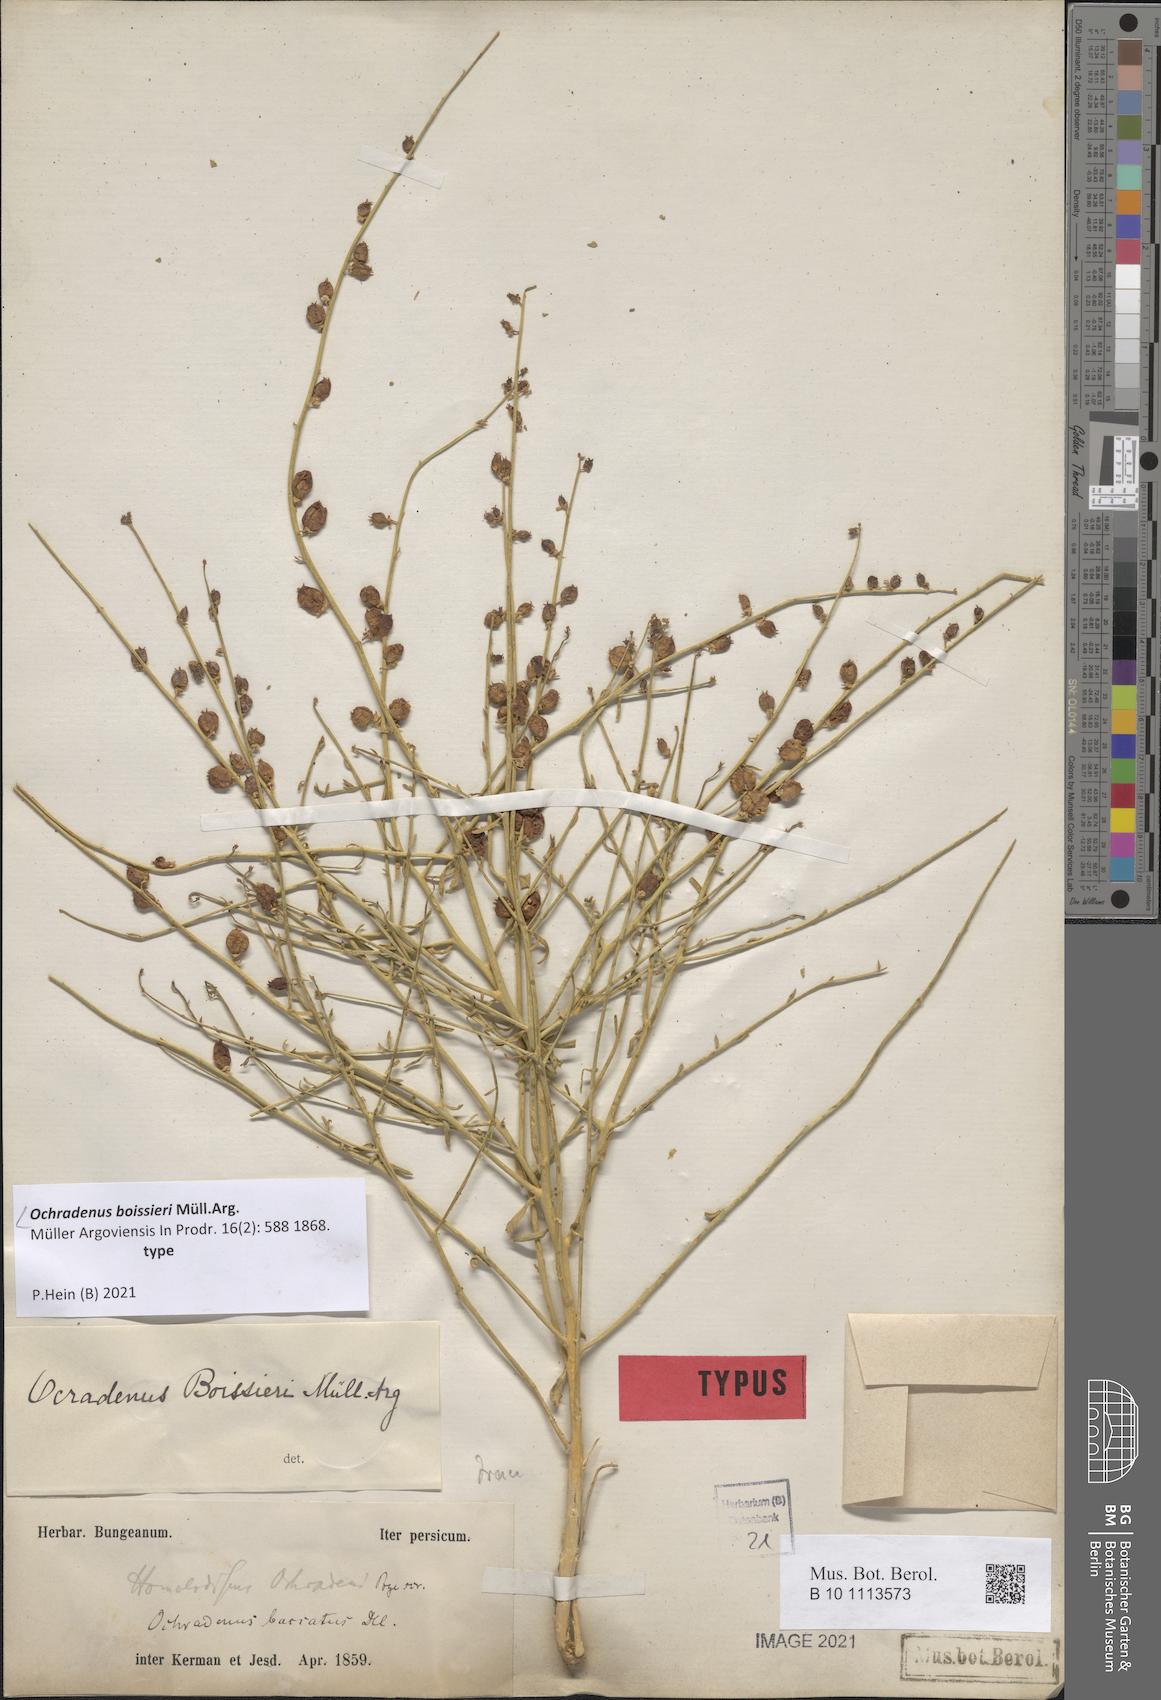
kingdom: Plantae
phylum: Tracheophyta
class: Magnoliopsida
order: Brassicales
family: Resedaceae
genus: Ochradiscus
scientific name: Ochradiscus ochradeni
